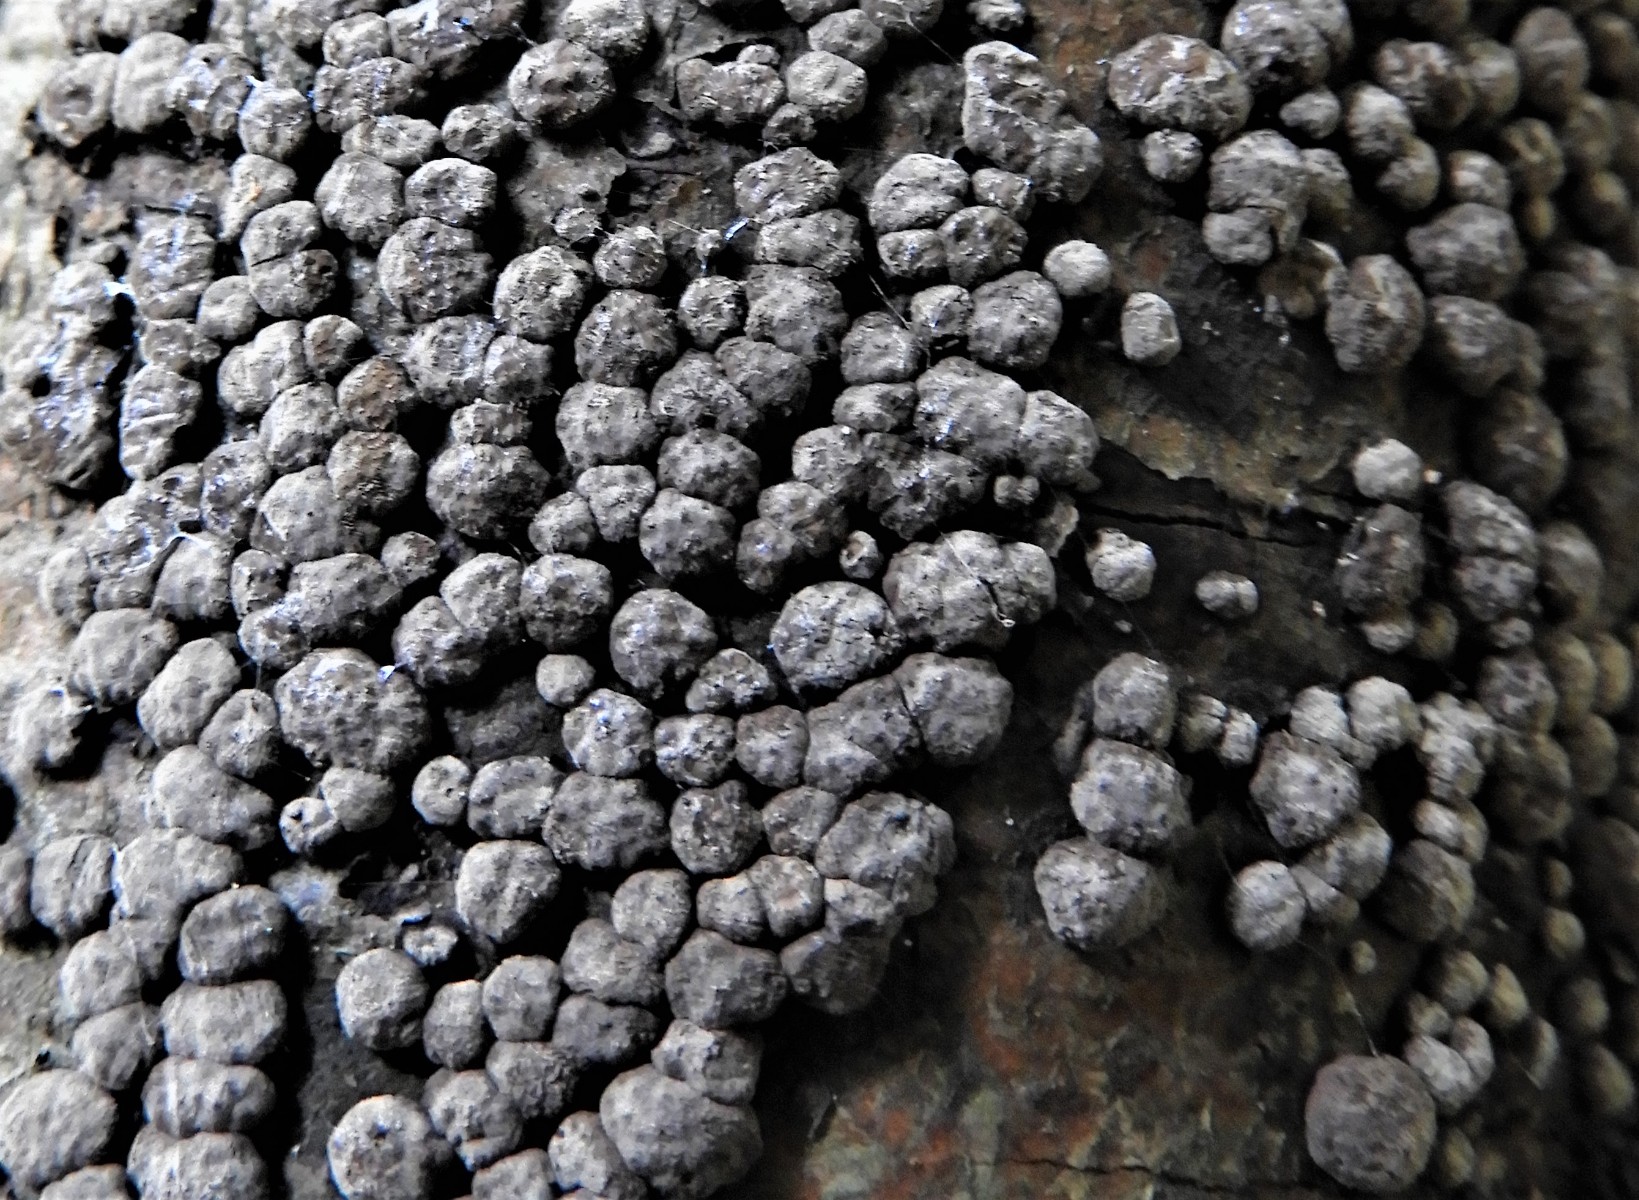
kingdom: Fungi
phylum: Ascomycota
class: Sordariomycetes
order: Xylariales
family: Hypoxylaceae
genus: Jackrogersella
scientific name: Jackrogersella cohaerens
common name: sammenflydende kulbær
